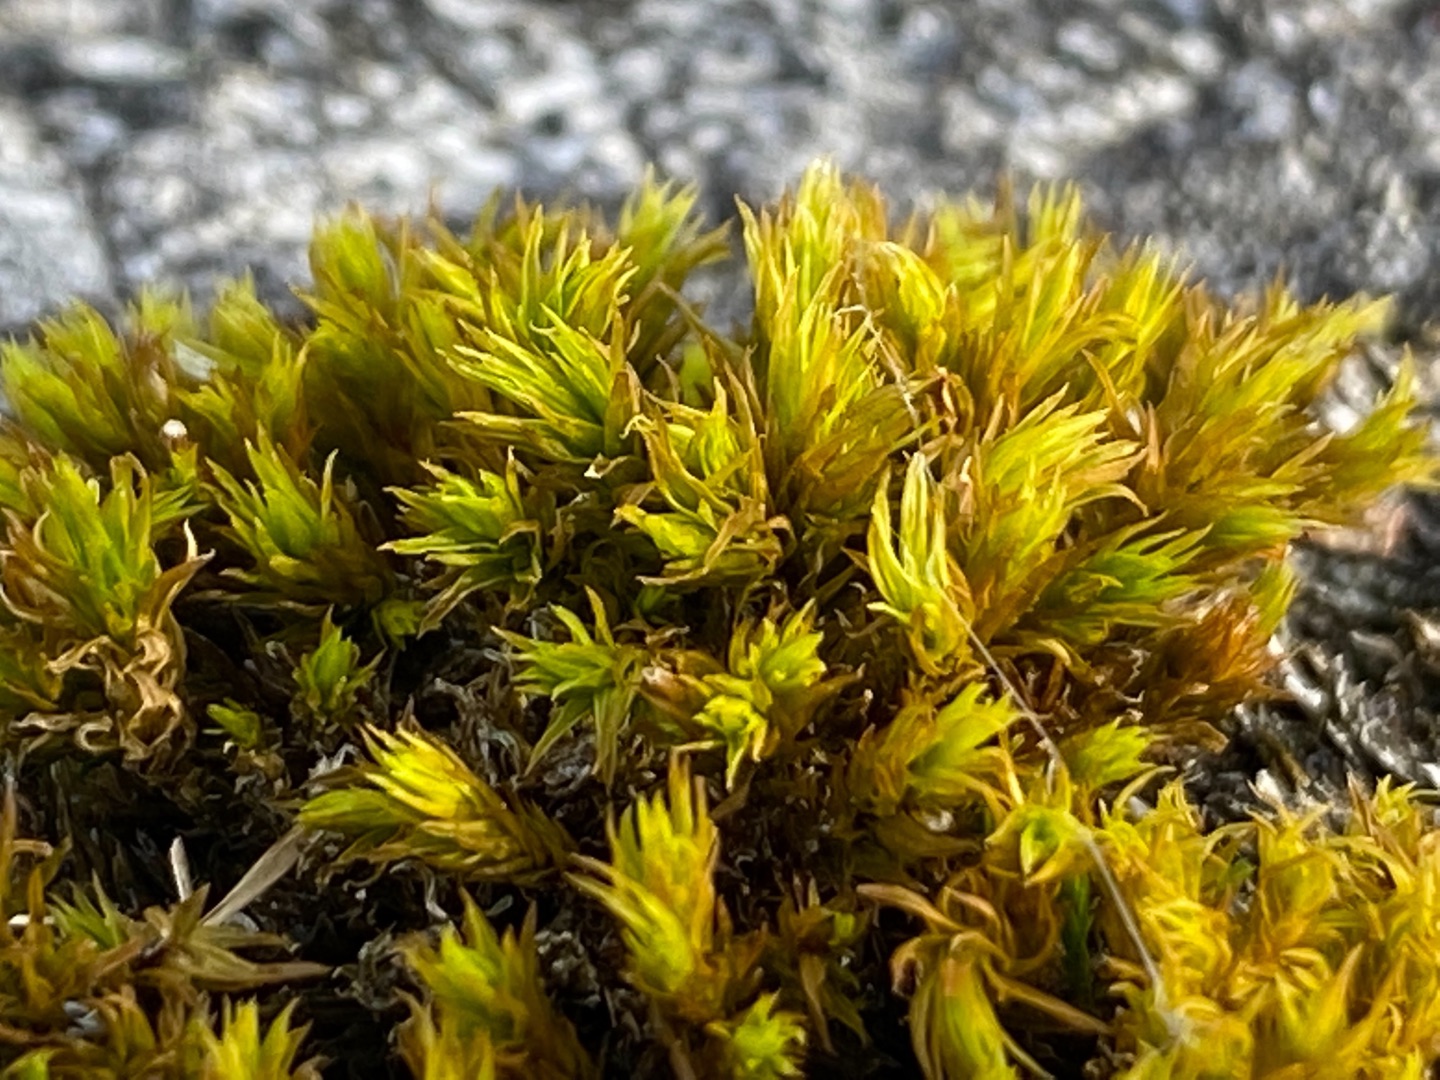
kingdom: Plantae
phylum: Bryophyta
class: Bryopsida
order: Orthotrichales
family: Orthotrichaceae
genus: Orthotrichum
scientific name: Orthotrichum
